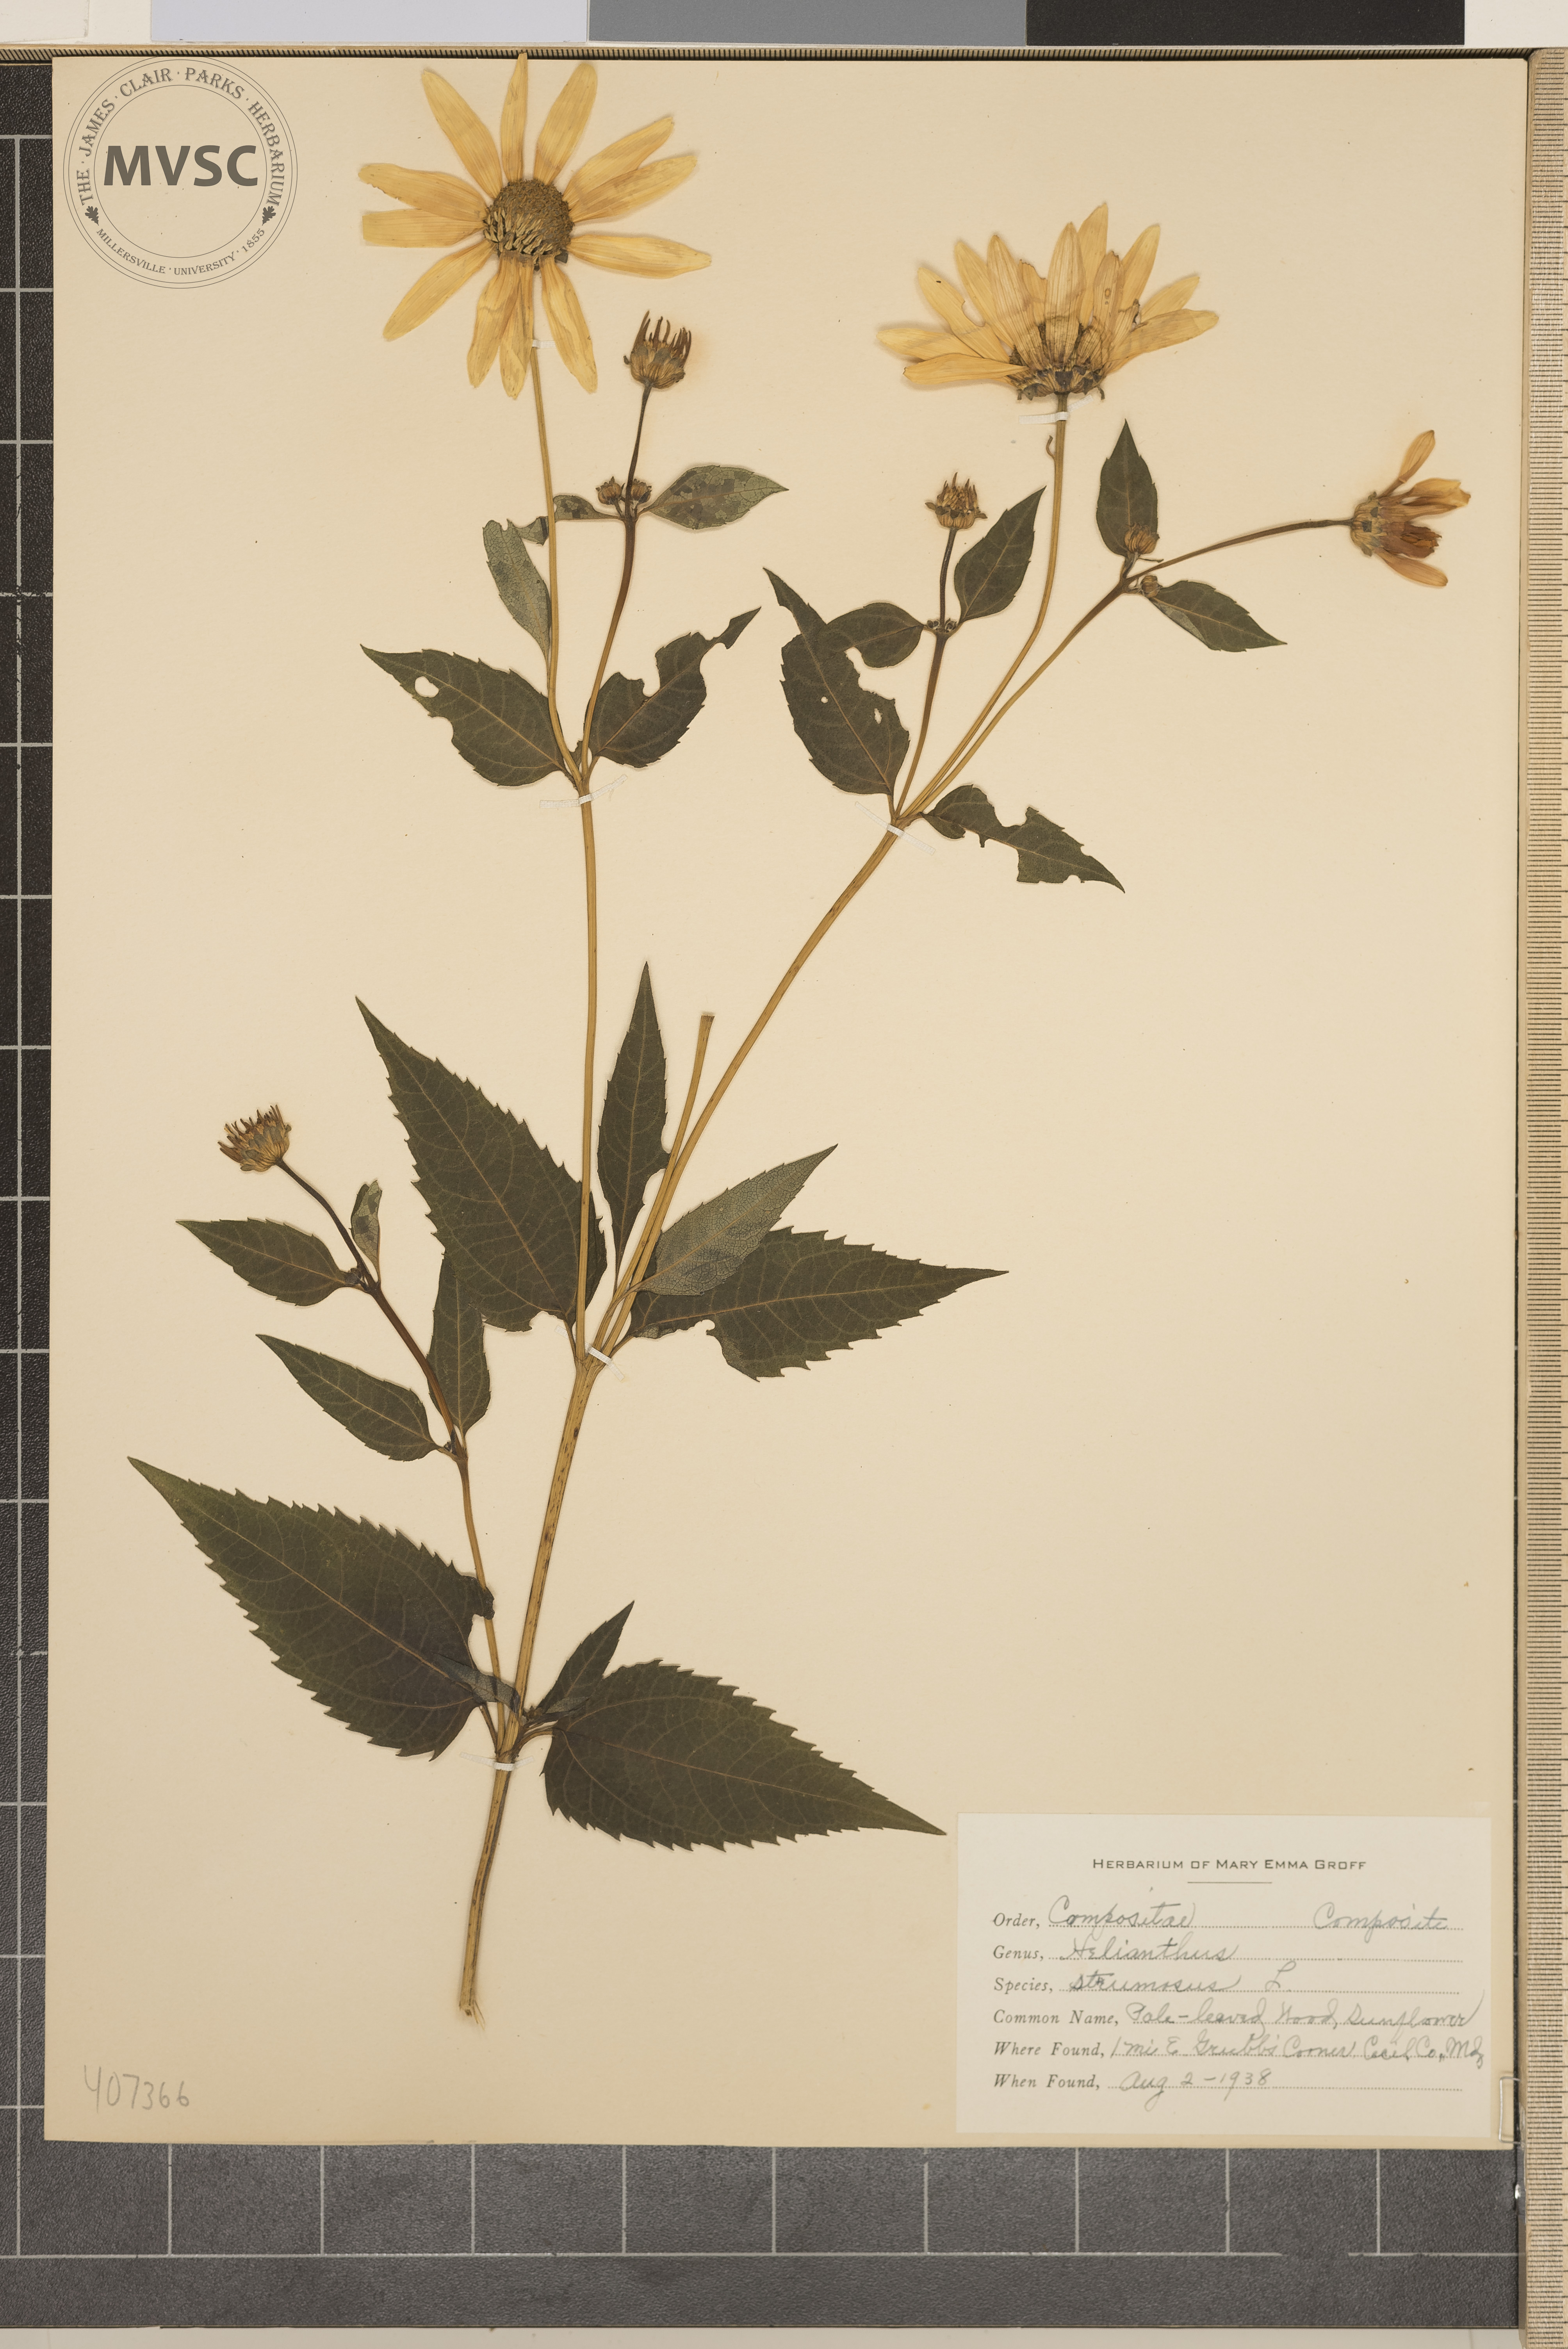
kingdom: Plantae
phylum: Tracheophyta
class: Magnoliopsida
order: Asterales
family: Asteraceae
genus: Helianthus
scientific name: Helianthus strumosus
